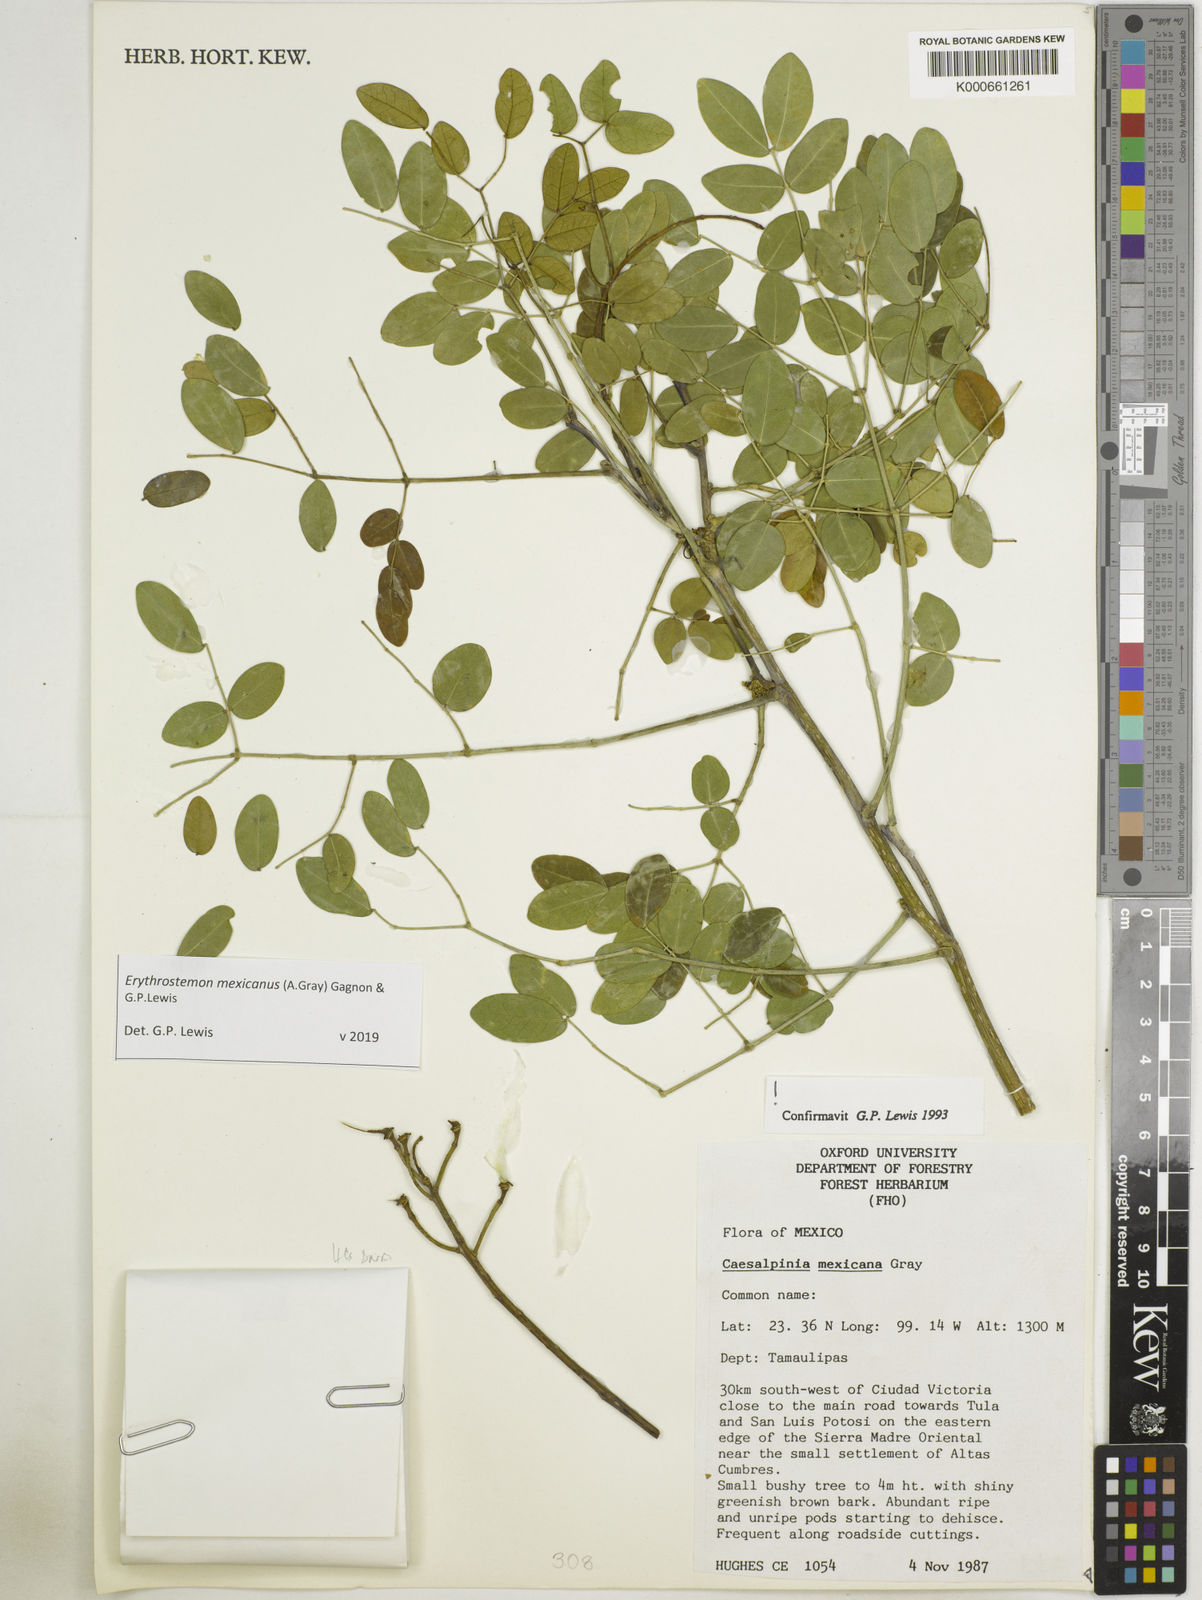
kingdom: Plantae
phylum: Tracheophyta
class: Magnoliopsida
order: Fabales
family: Fabaceae
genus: Erythrostemon
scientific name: Erythrostemon mexicanus
